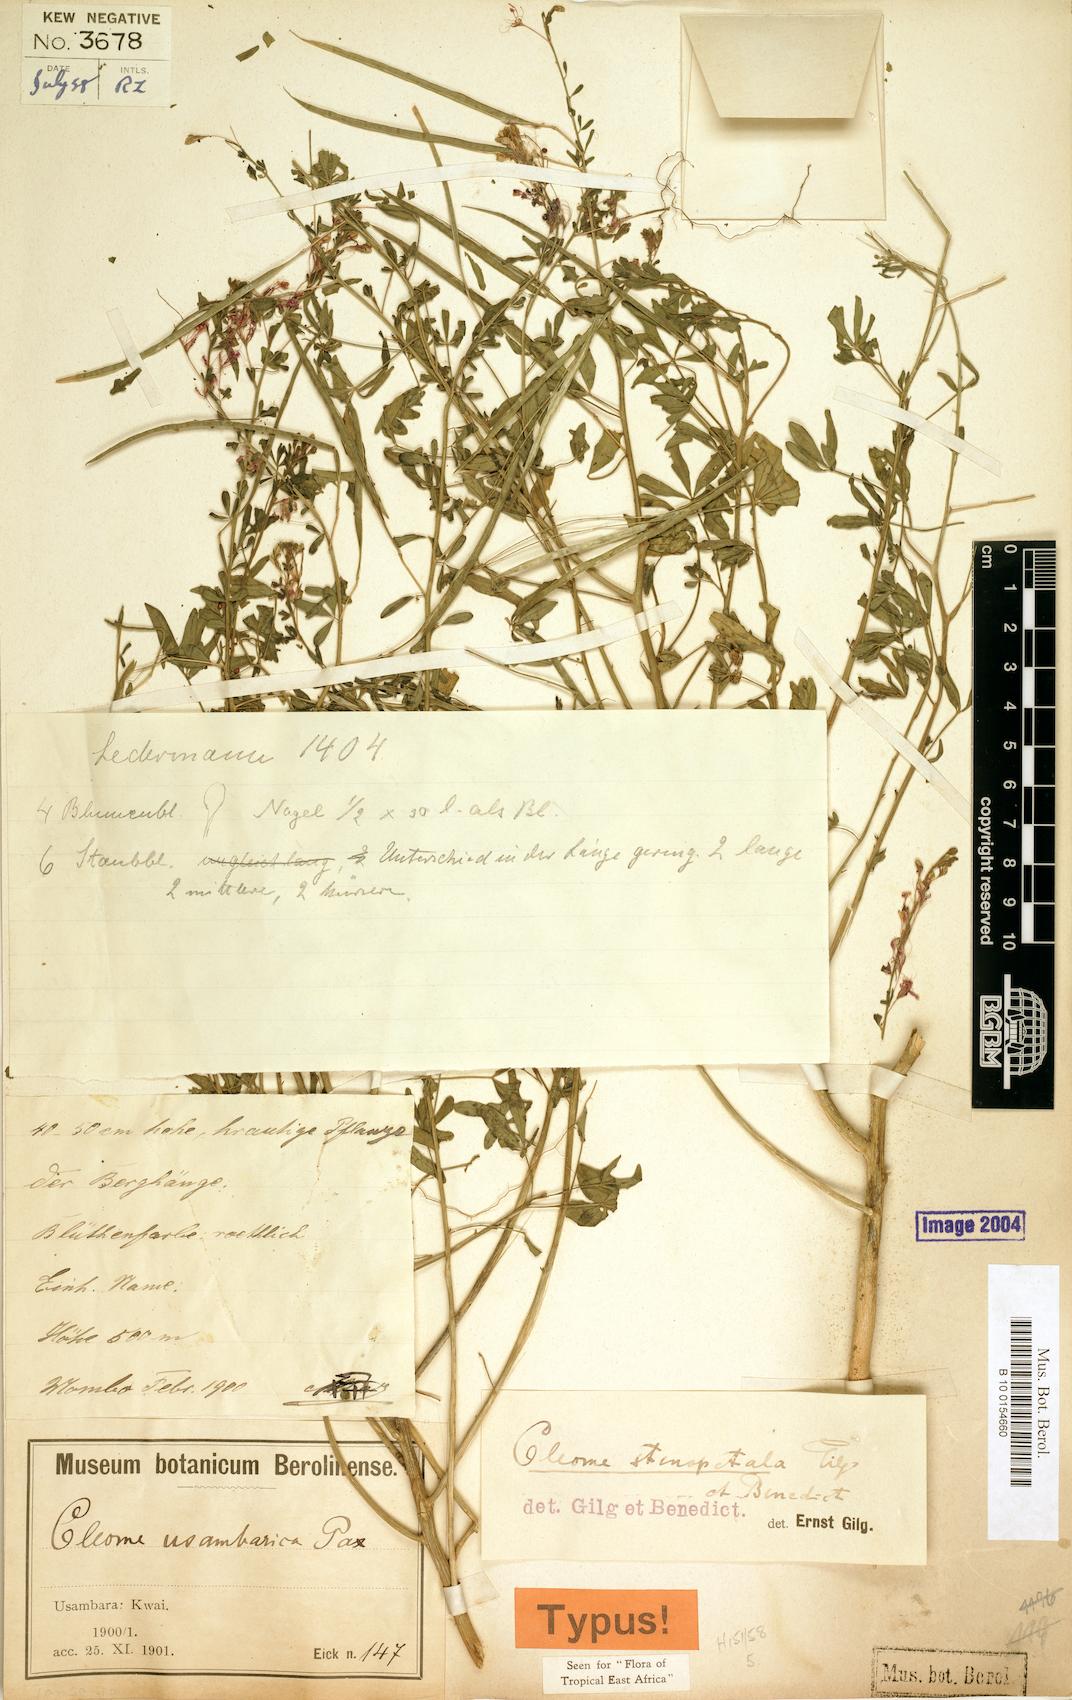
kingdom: Plantae
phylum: Tracheophyta
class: Magnoliopsida
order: Brassicales
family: Cleomaceae
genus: Sieruela
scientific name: Sieruela stenopetala
